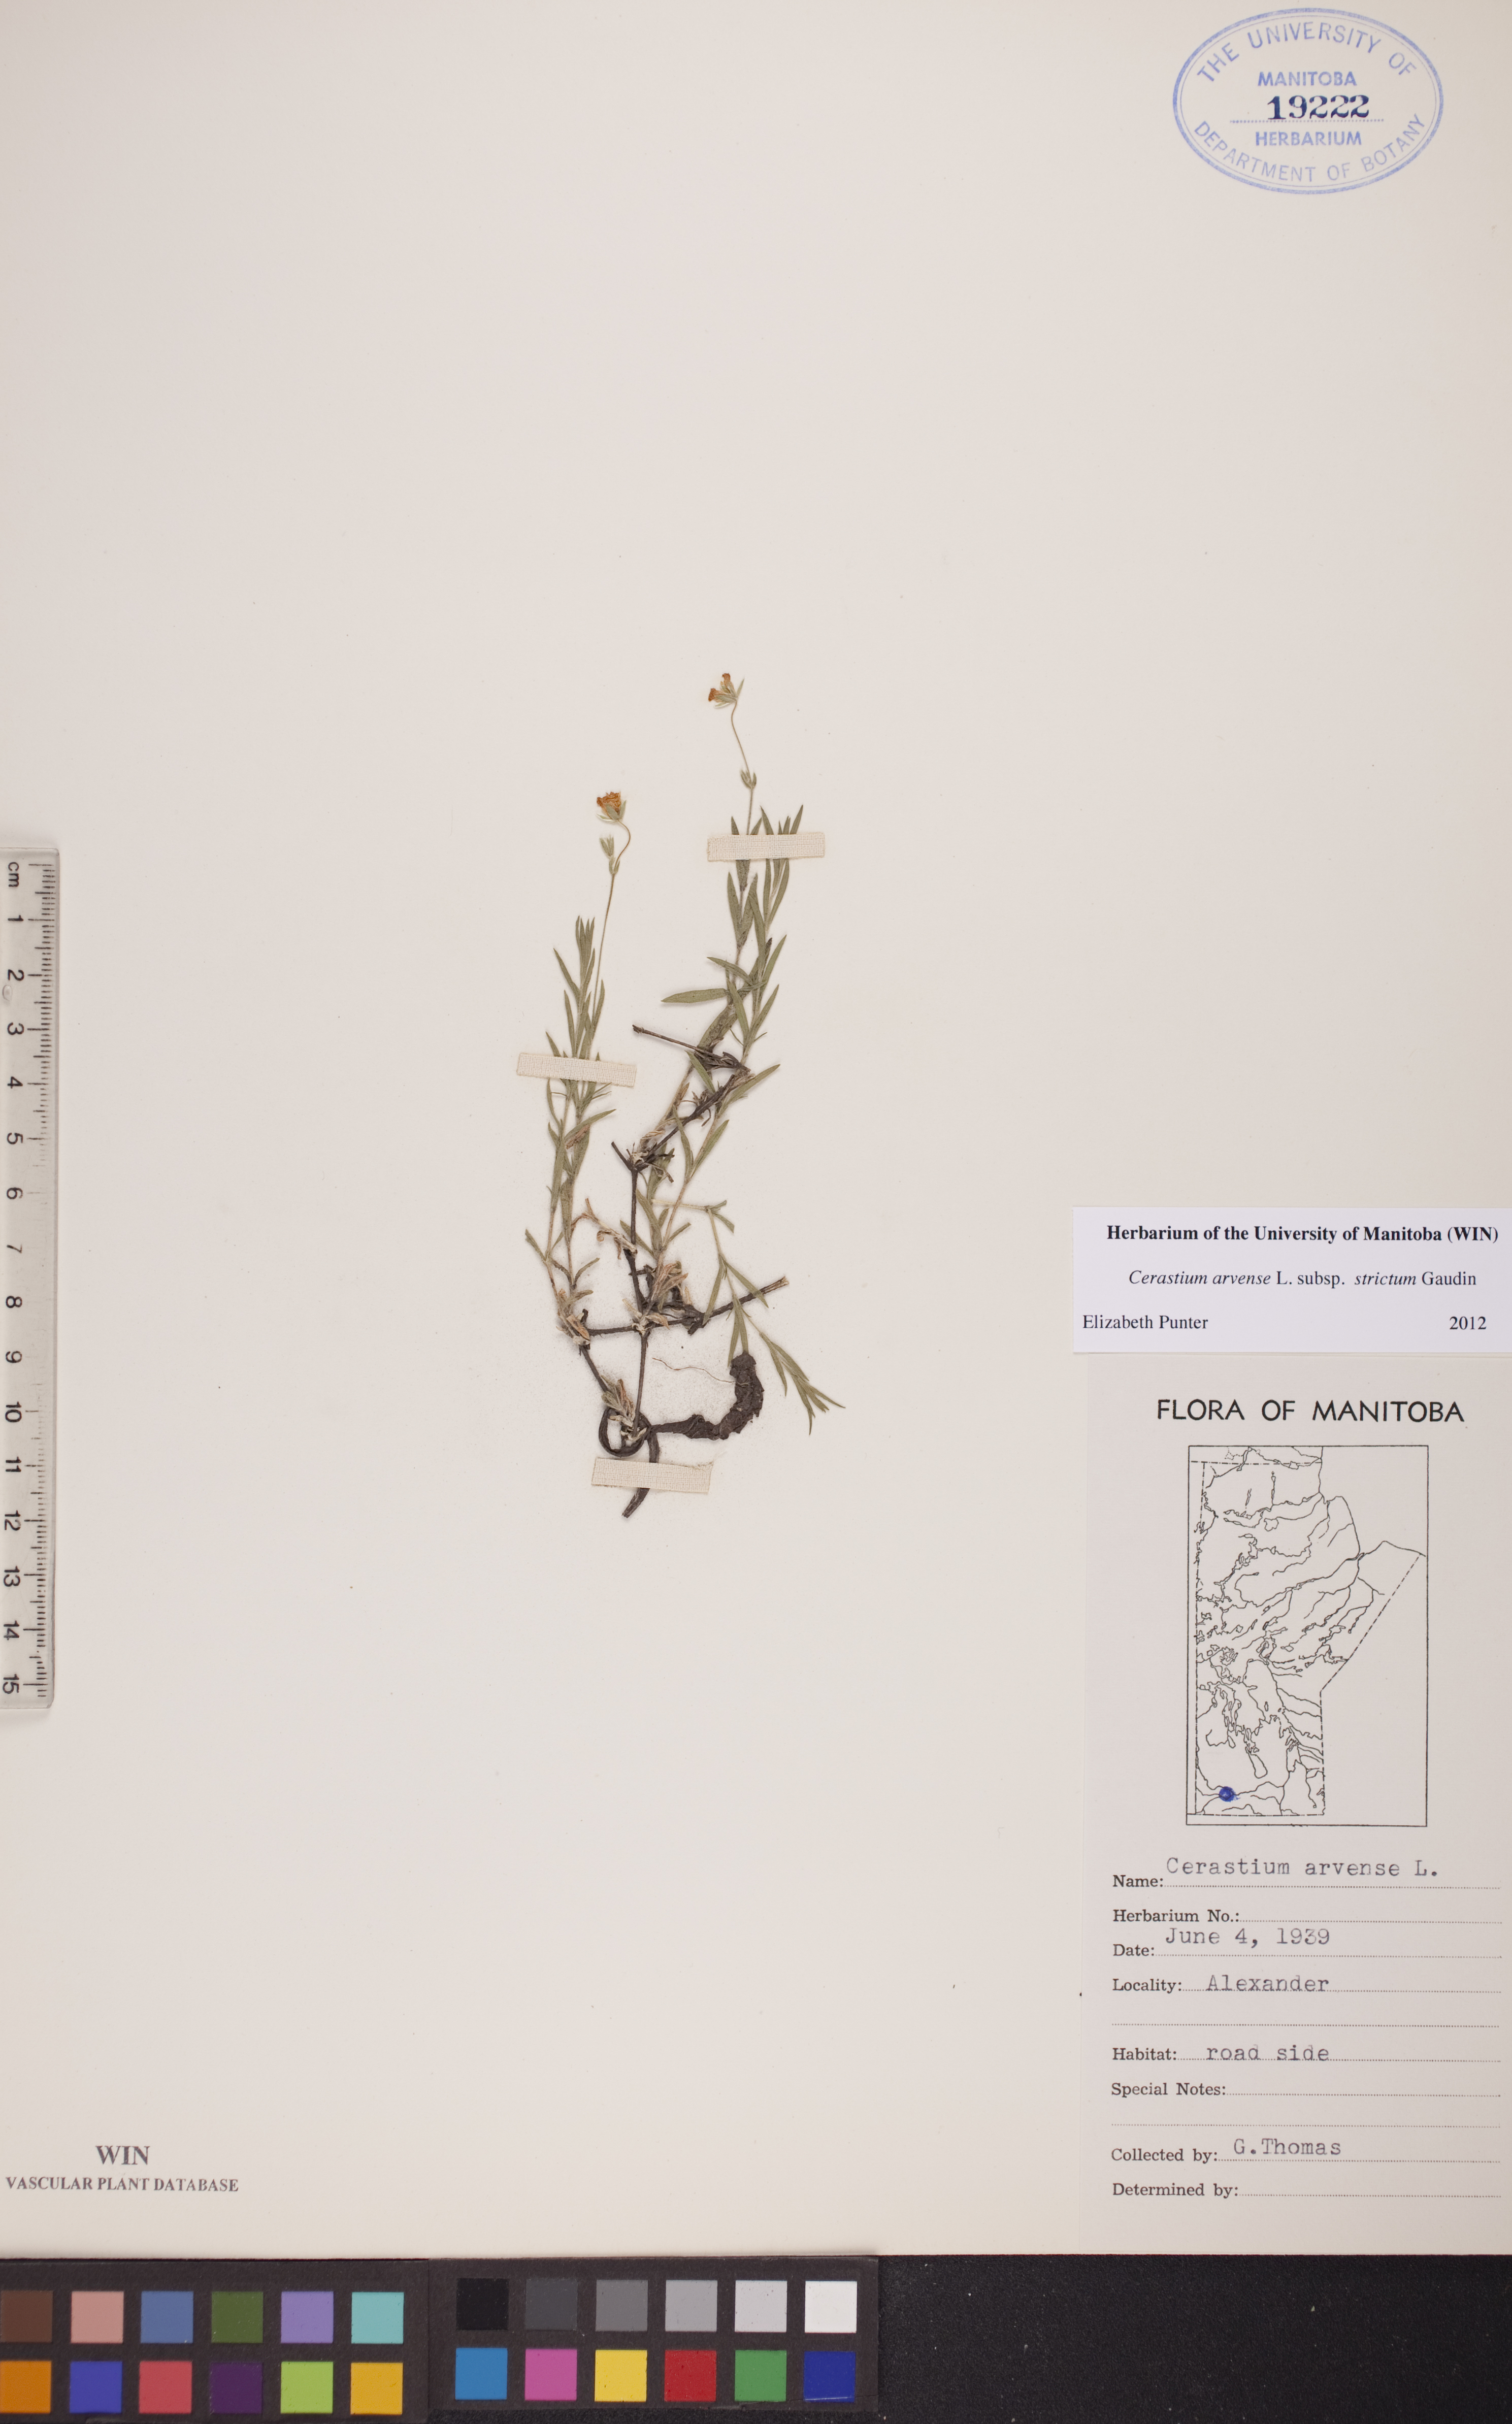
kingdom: Plantae
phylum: Tracheophyta
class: Magnoliopsida
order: Caryophyllales
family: Caryophyllaceae
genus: Cerastium
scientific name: Cerastium elongatum
